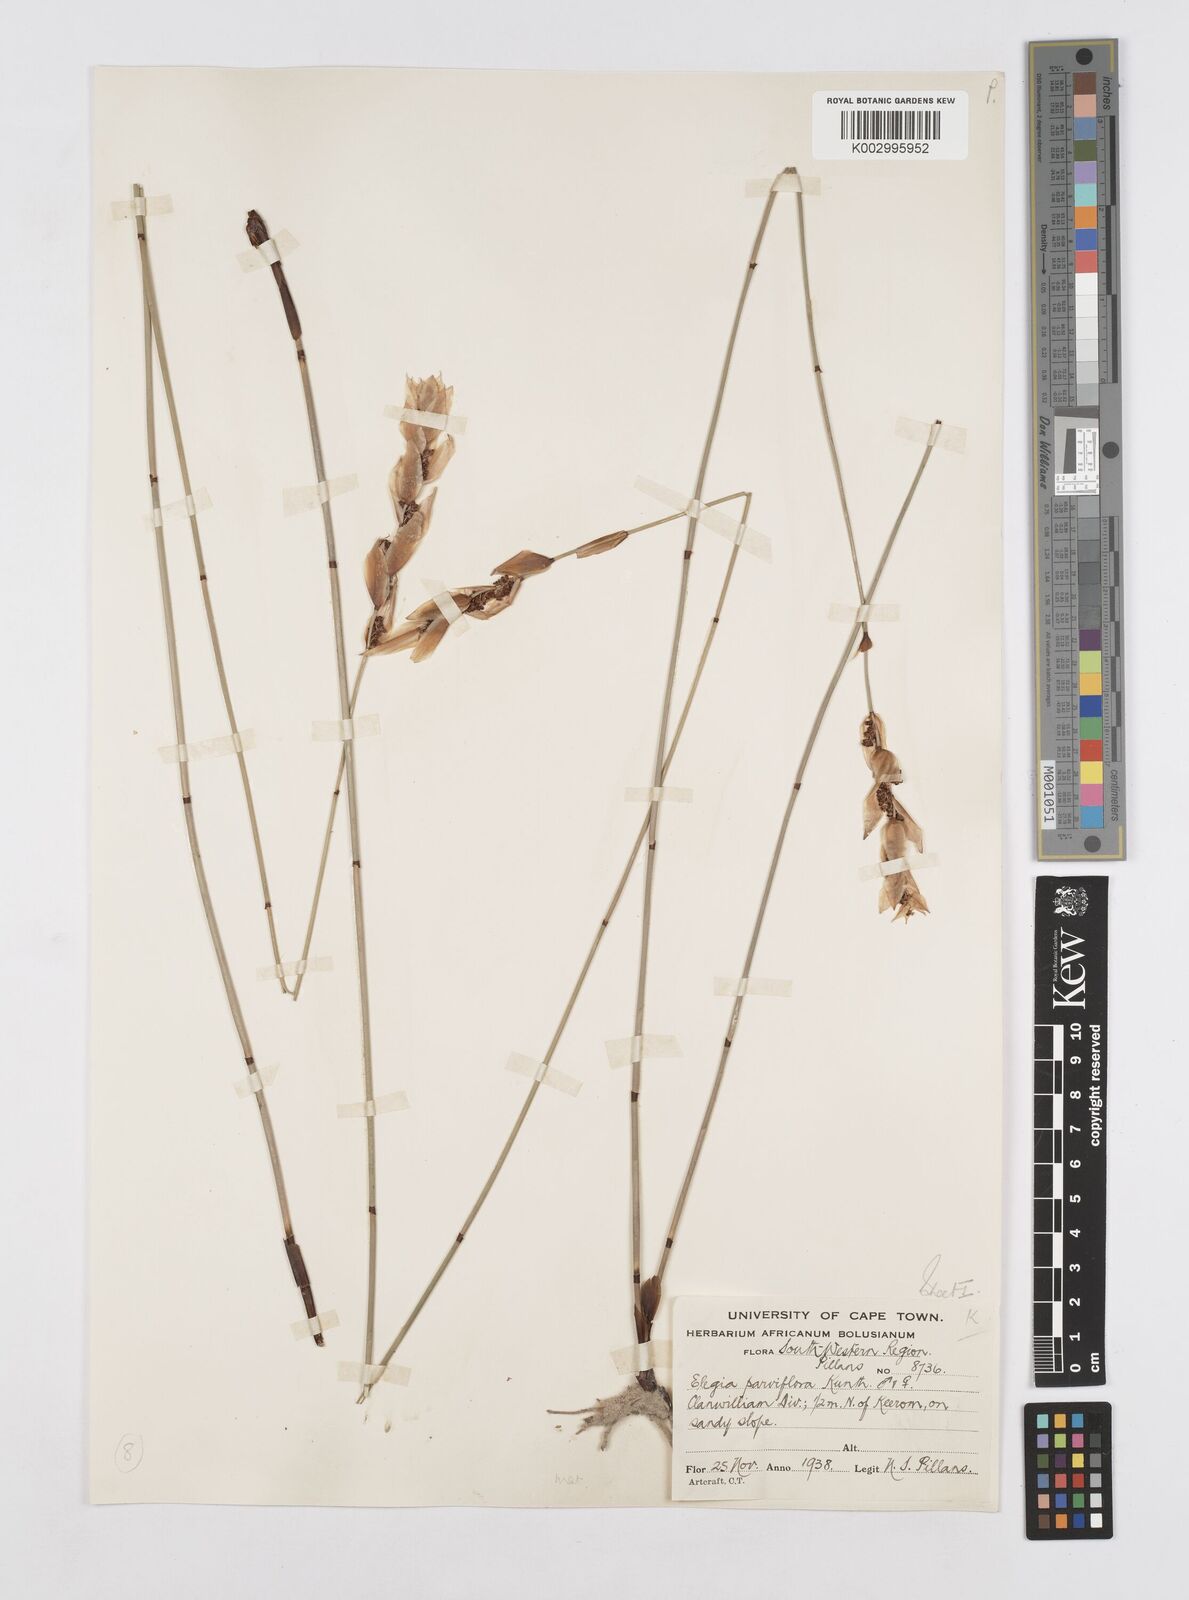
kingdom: Plantae
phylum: Tracheophyta
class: Liliopsida
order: Poales
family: Restionaceae
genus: Cannomois
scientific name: Cannomois parviflora
